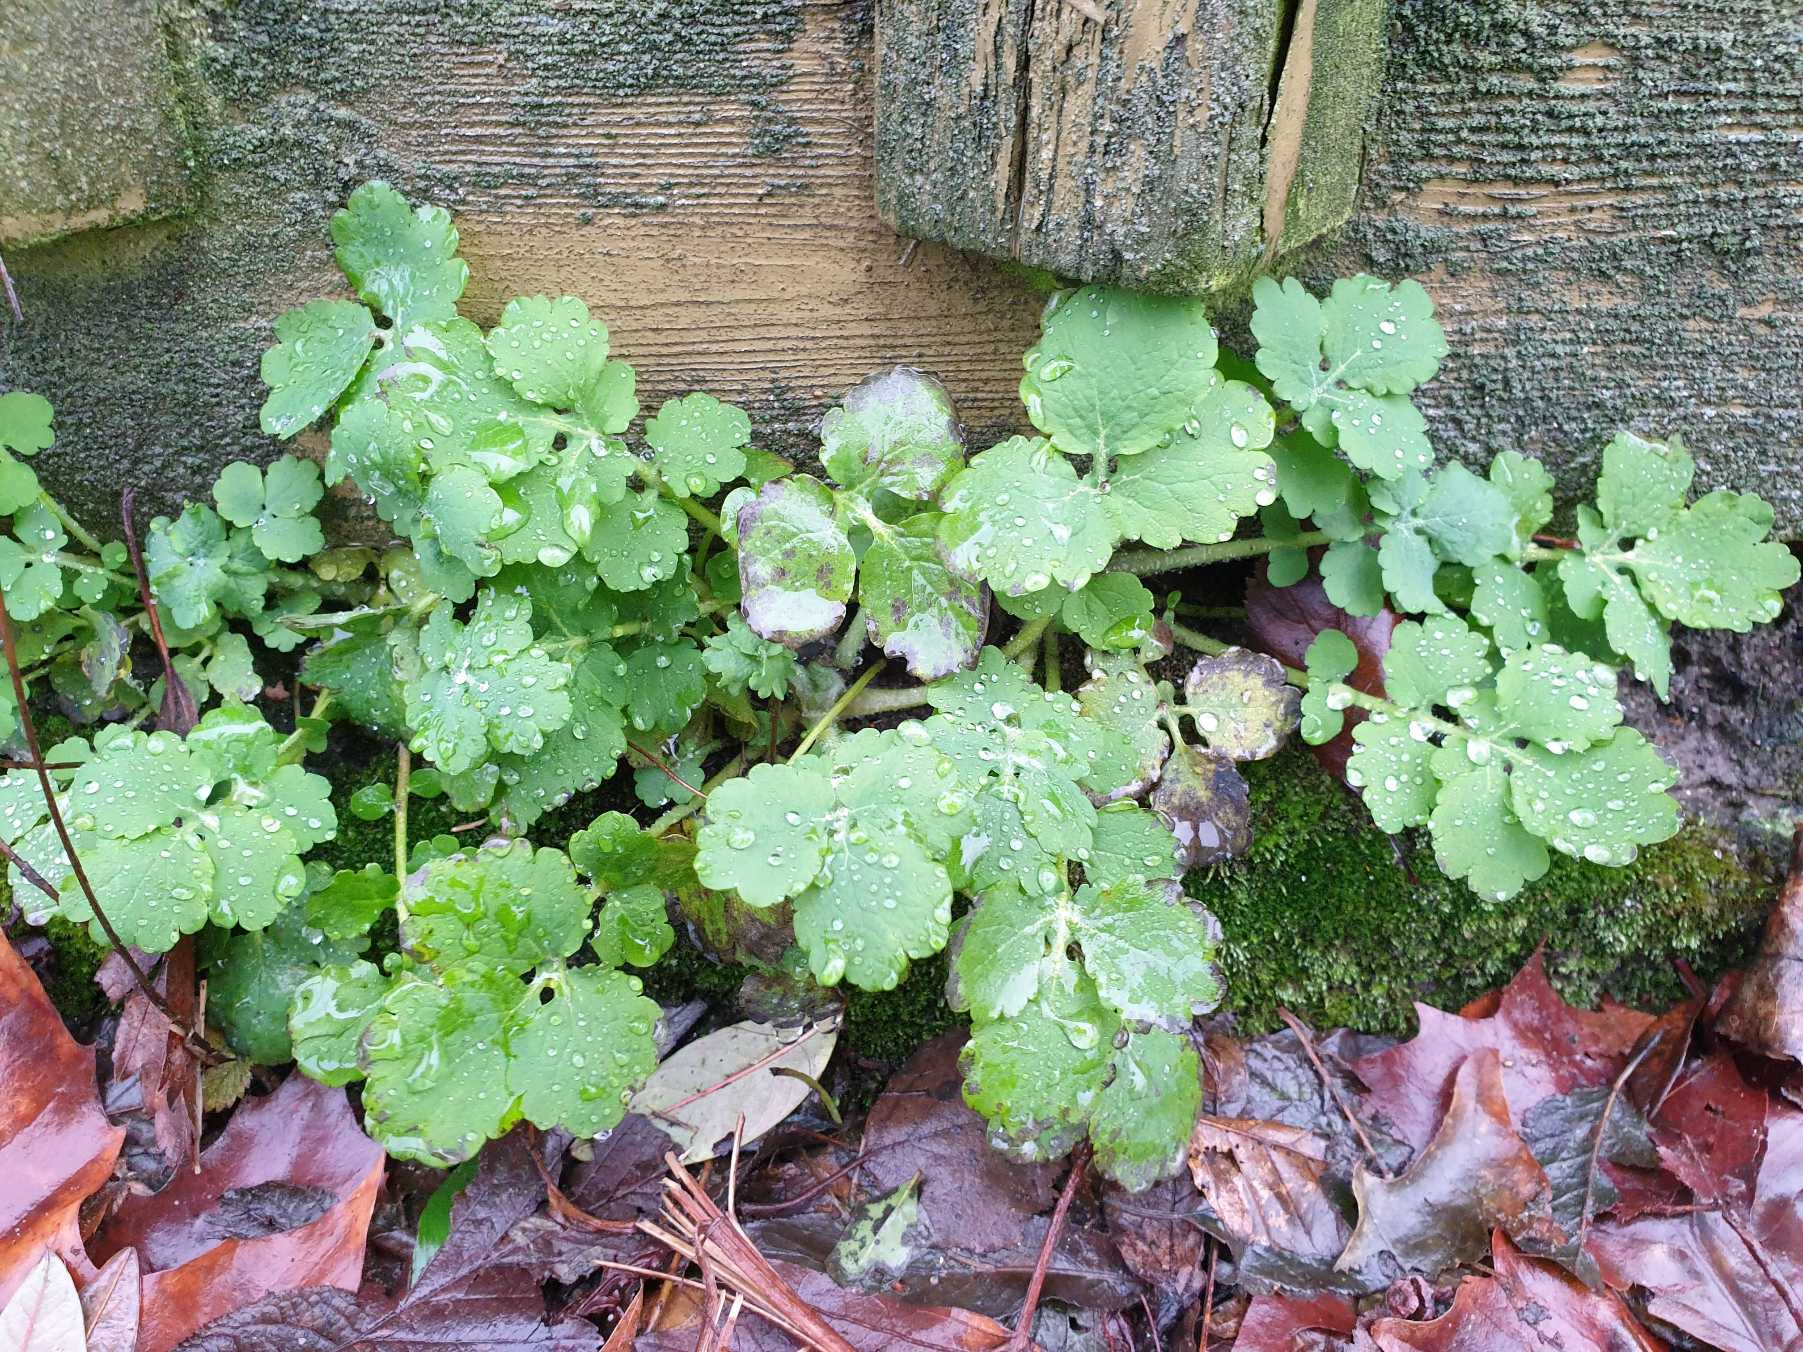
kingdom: Plantae
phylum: Tracheophyta
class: Magnoliopsida
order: Ranunculales
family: Papaveraceae
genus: Chelidonium
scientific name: Chelidonium majus
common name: Svaleurt
